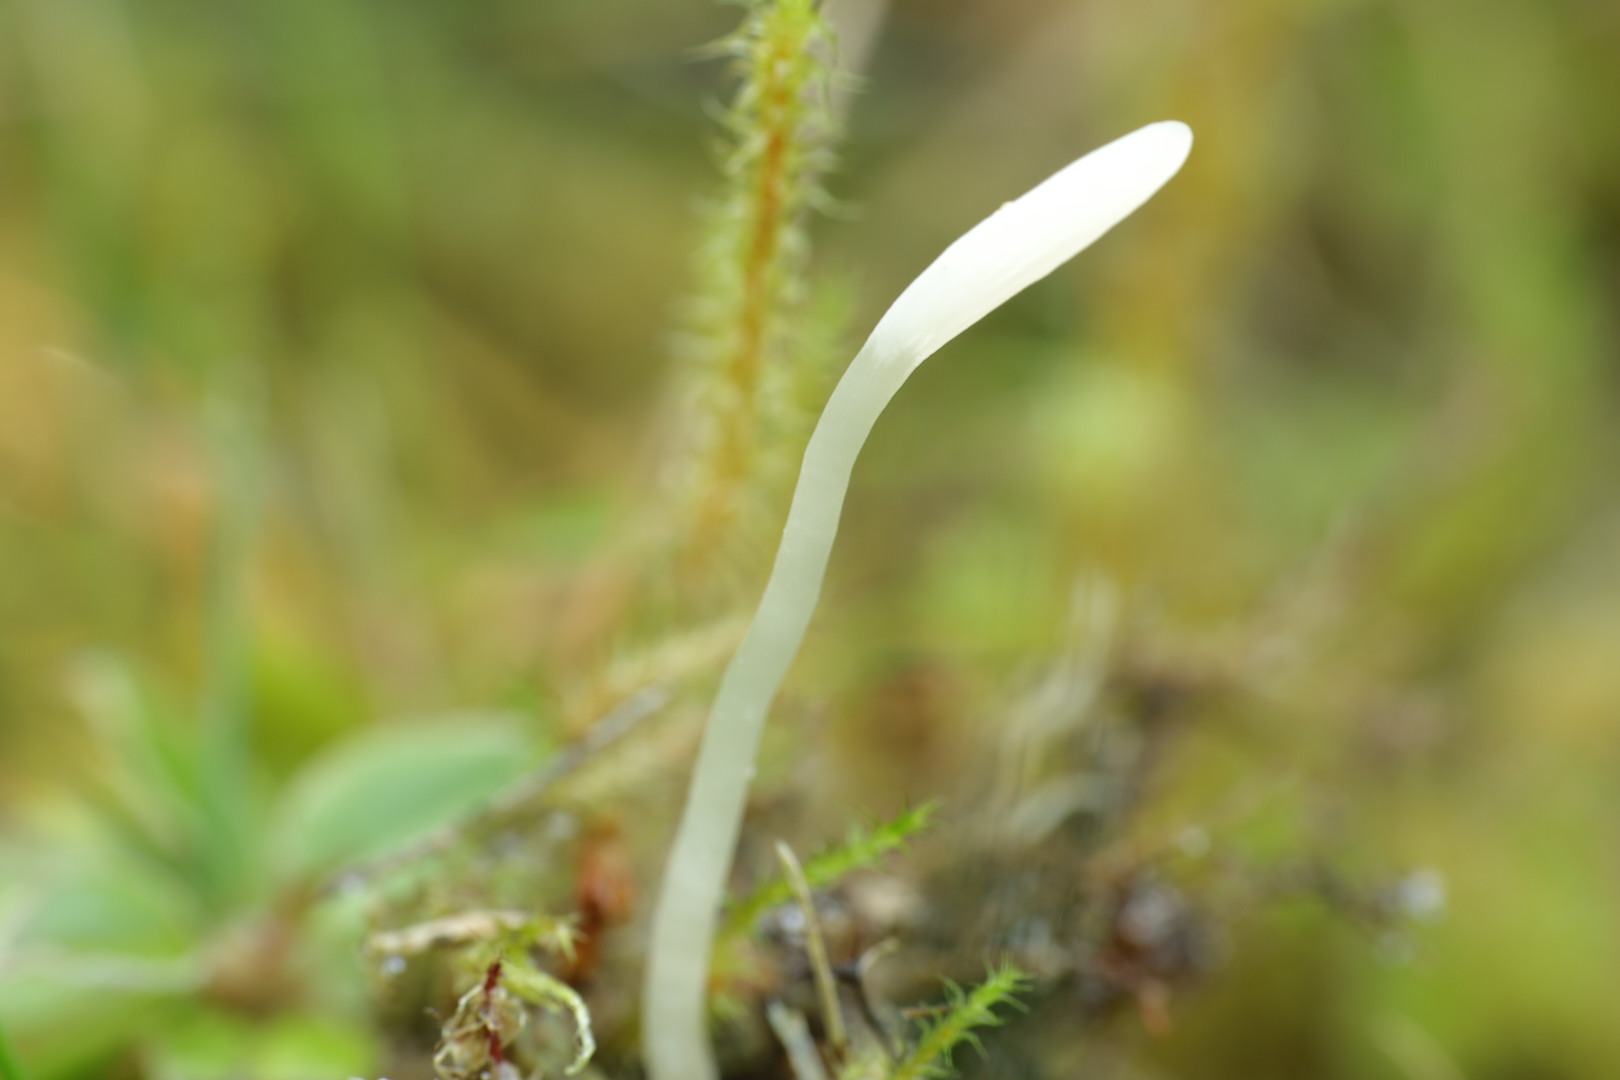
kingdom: Fungi
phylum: Basidiomycota
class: Agaricomycetes
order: Agaricales
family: Clavariaceae
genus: Clavaria
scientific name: Clavaria falcata
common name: hvid køllesvamp
